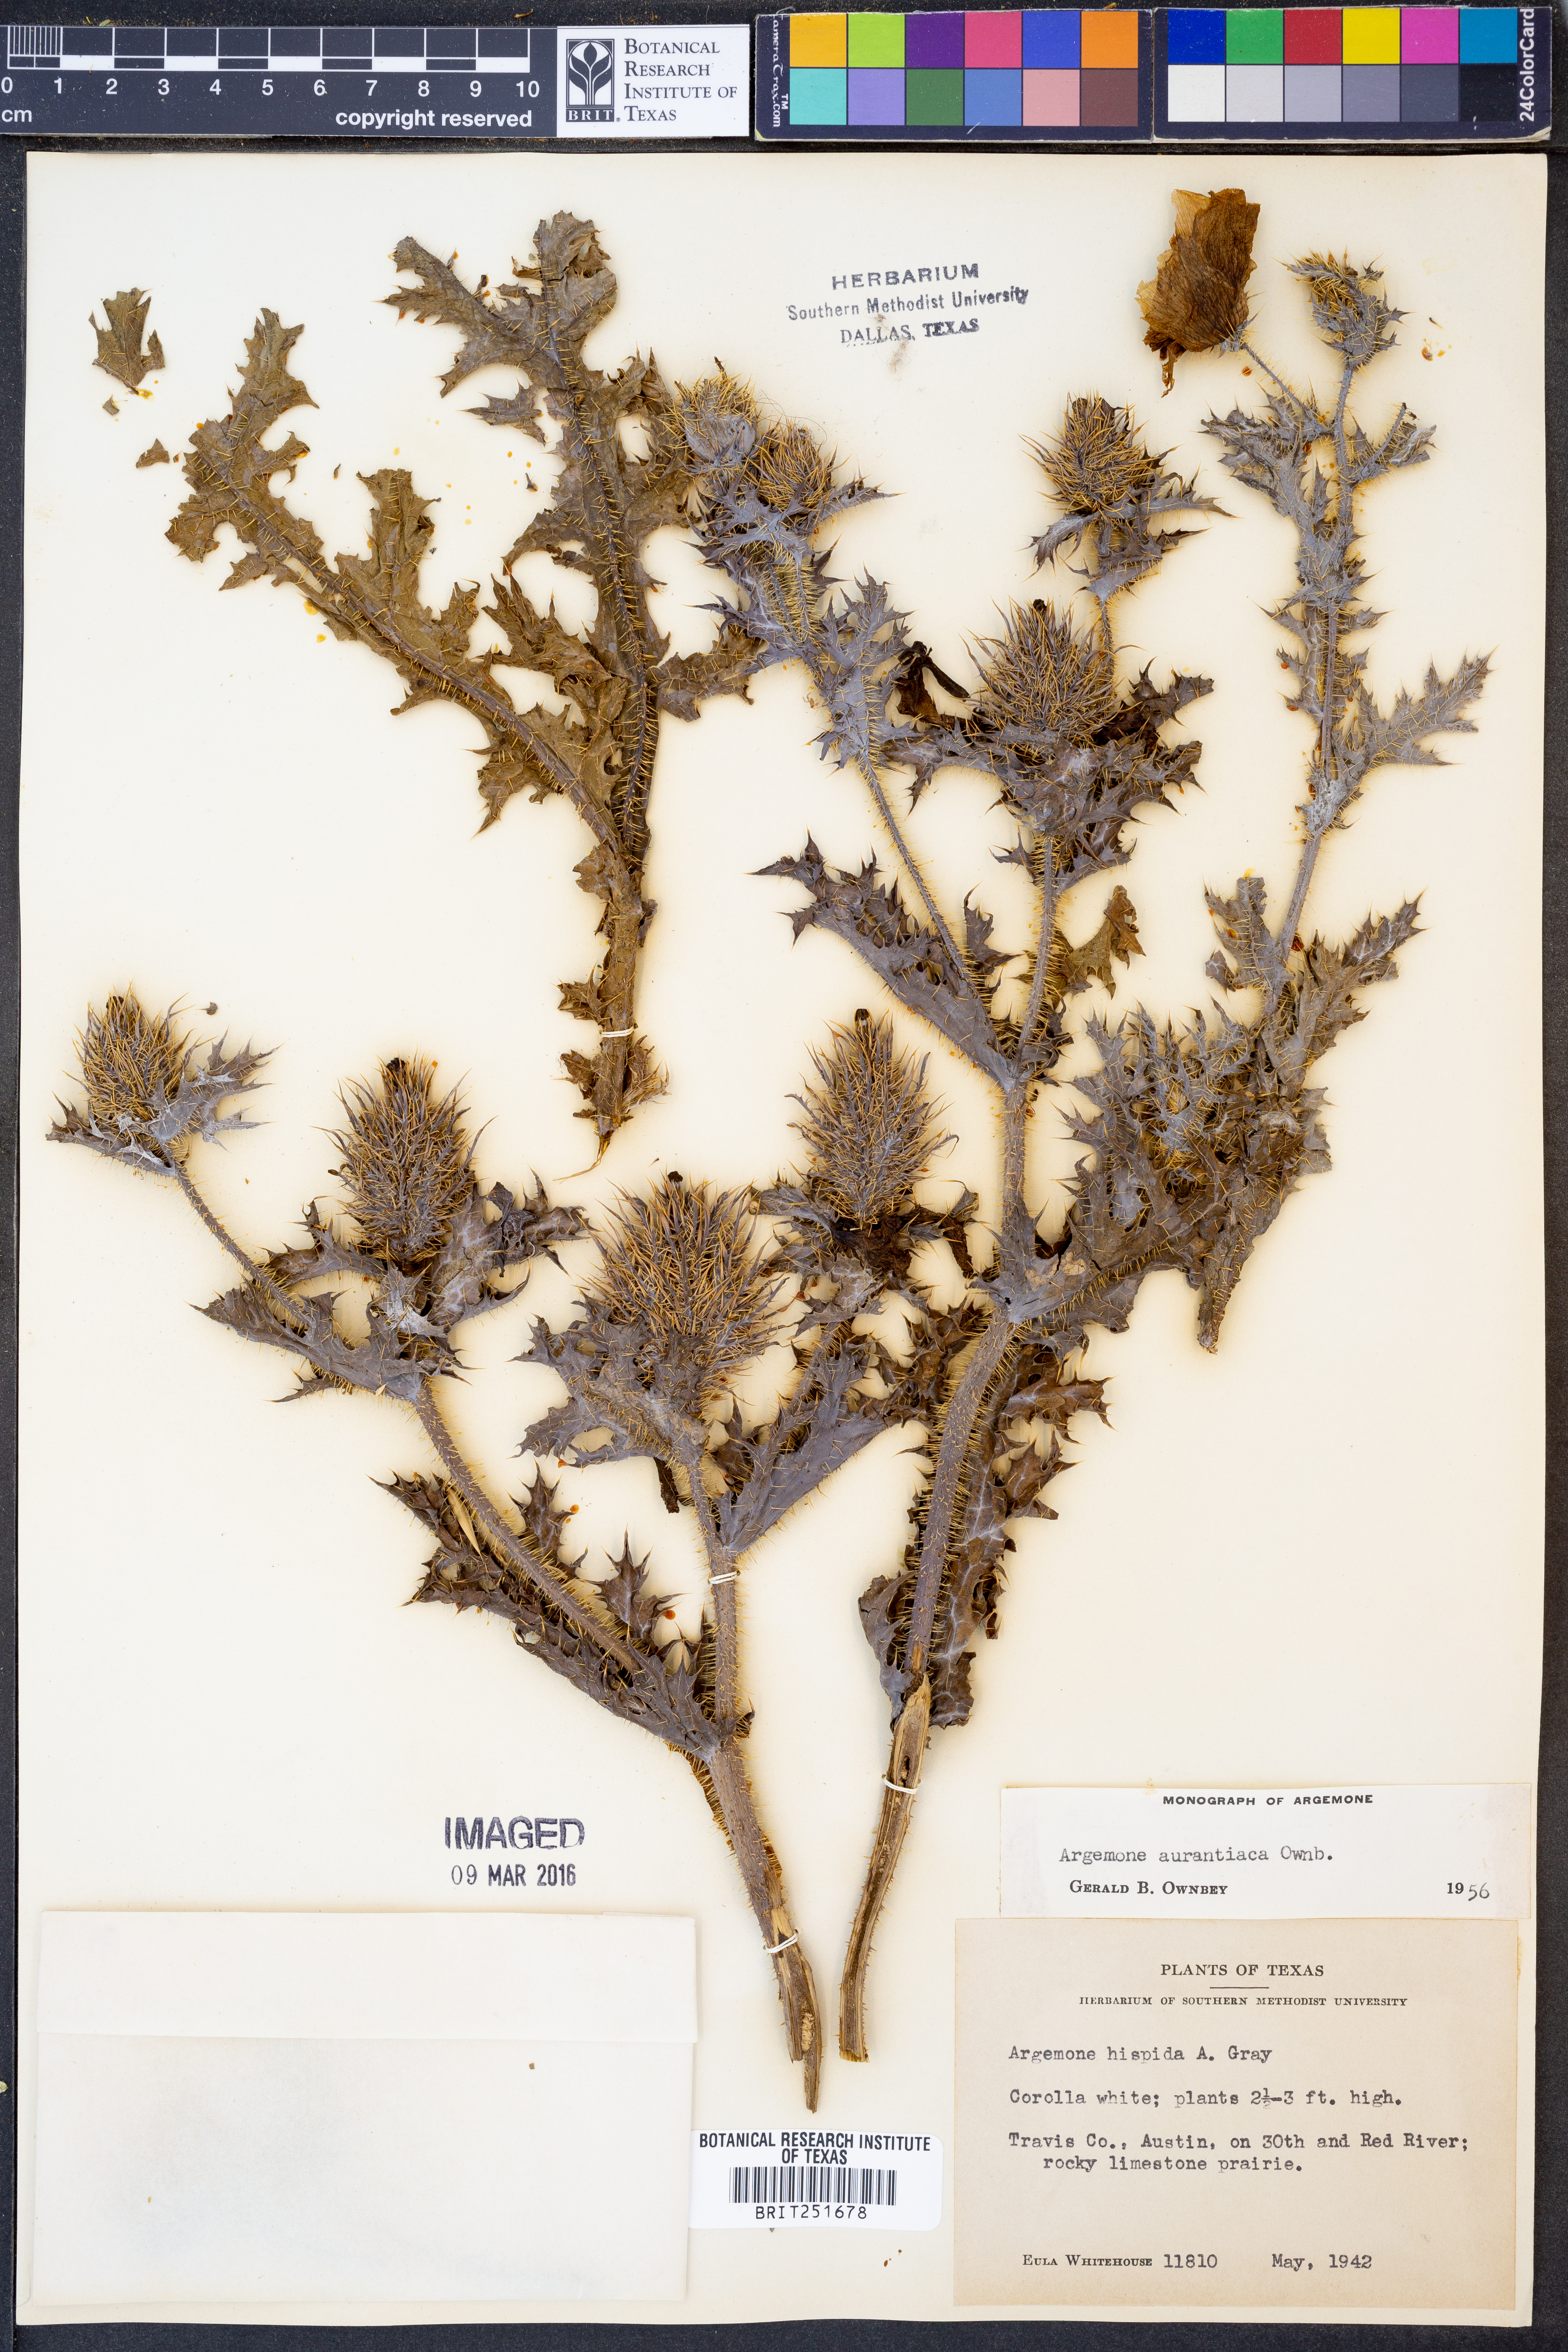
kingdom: Plantae
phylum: Tracheophyta
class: Magnoliopsida
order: Ranunculales
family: Papaveraceae
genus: Argemone
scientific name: Argemone aurantiaca
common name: Texas prickly-poppy
